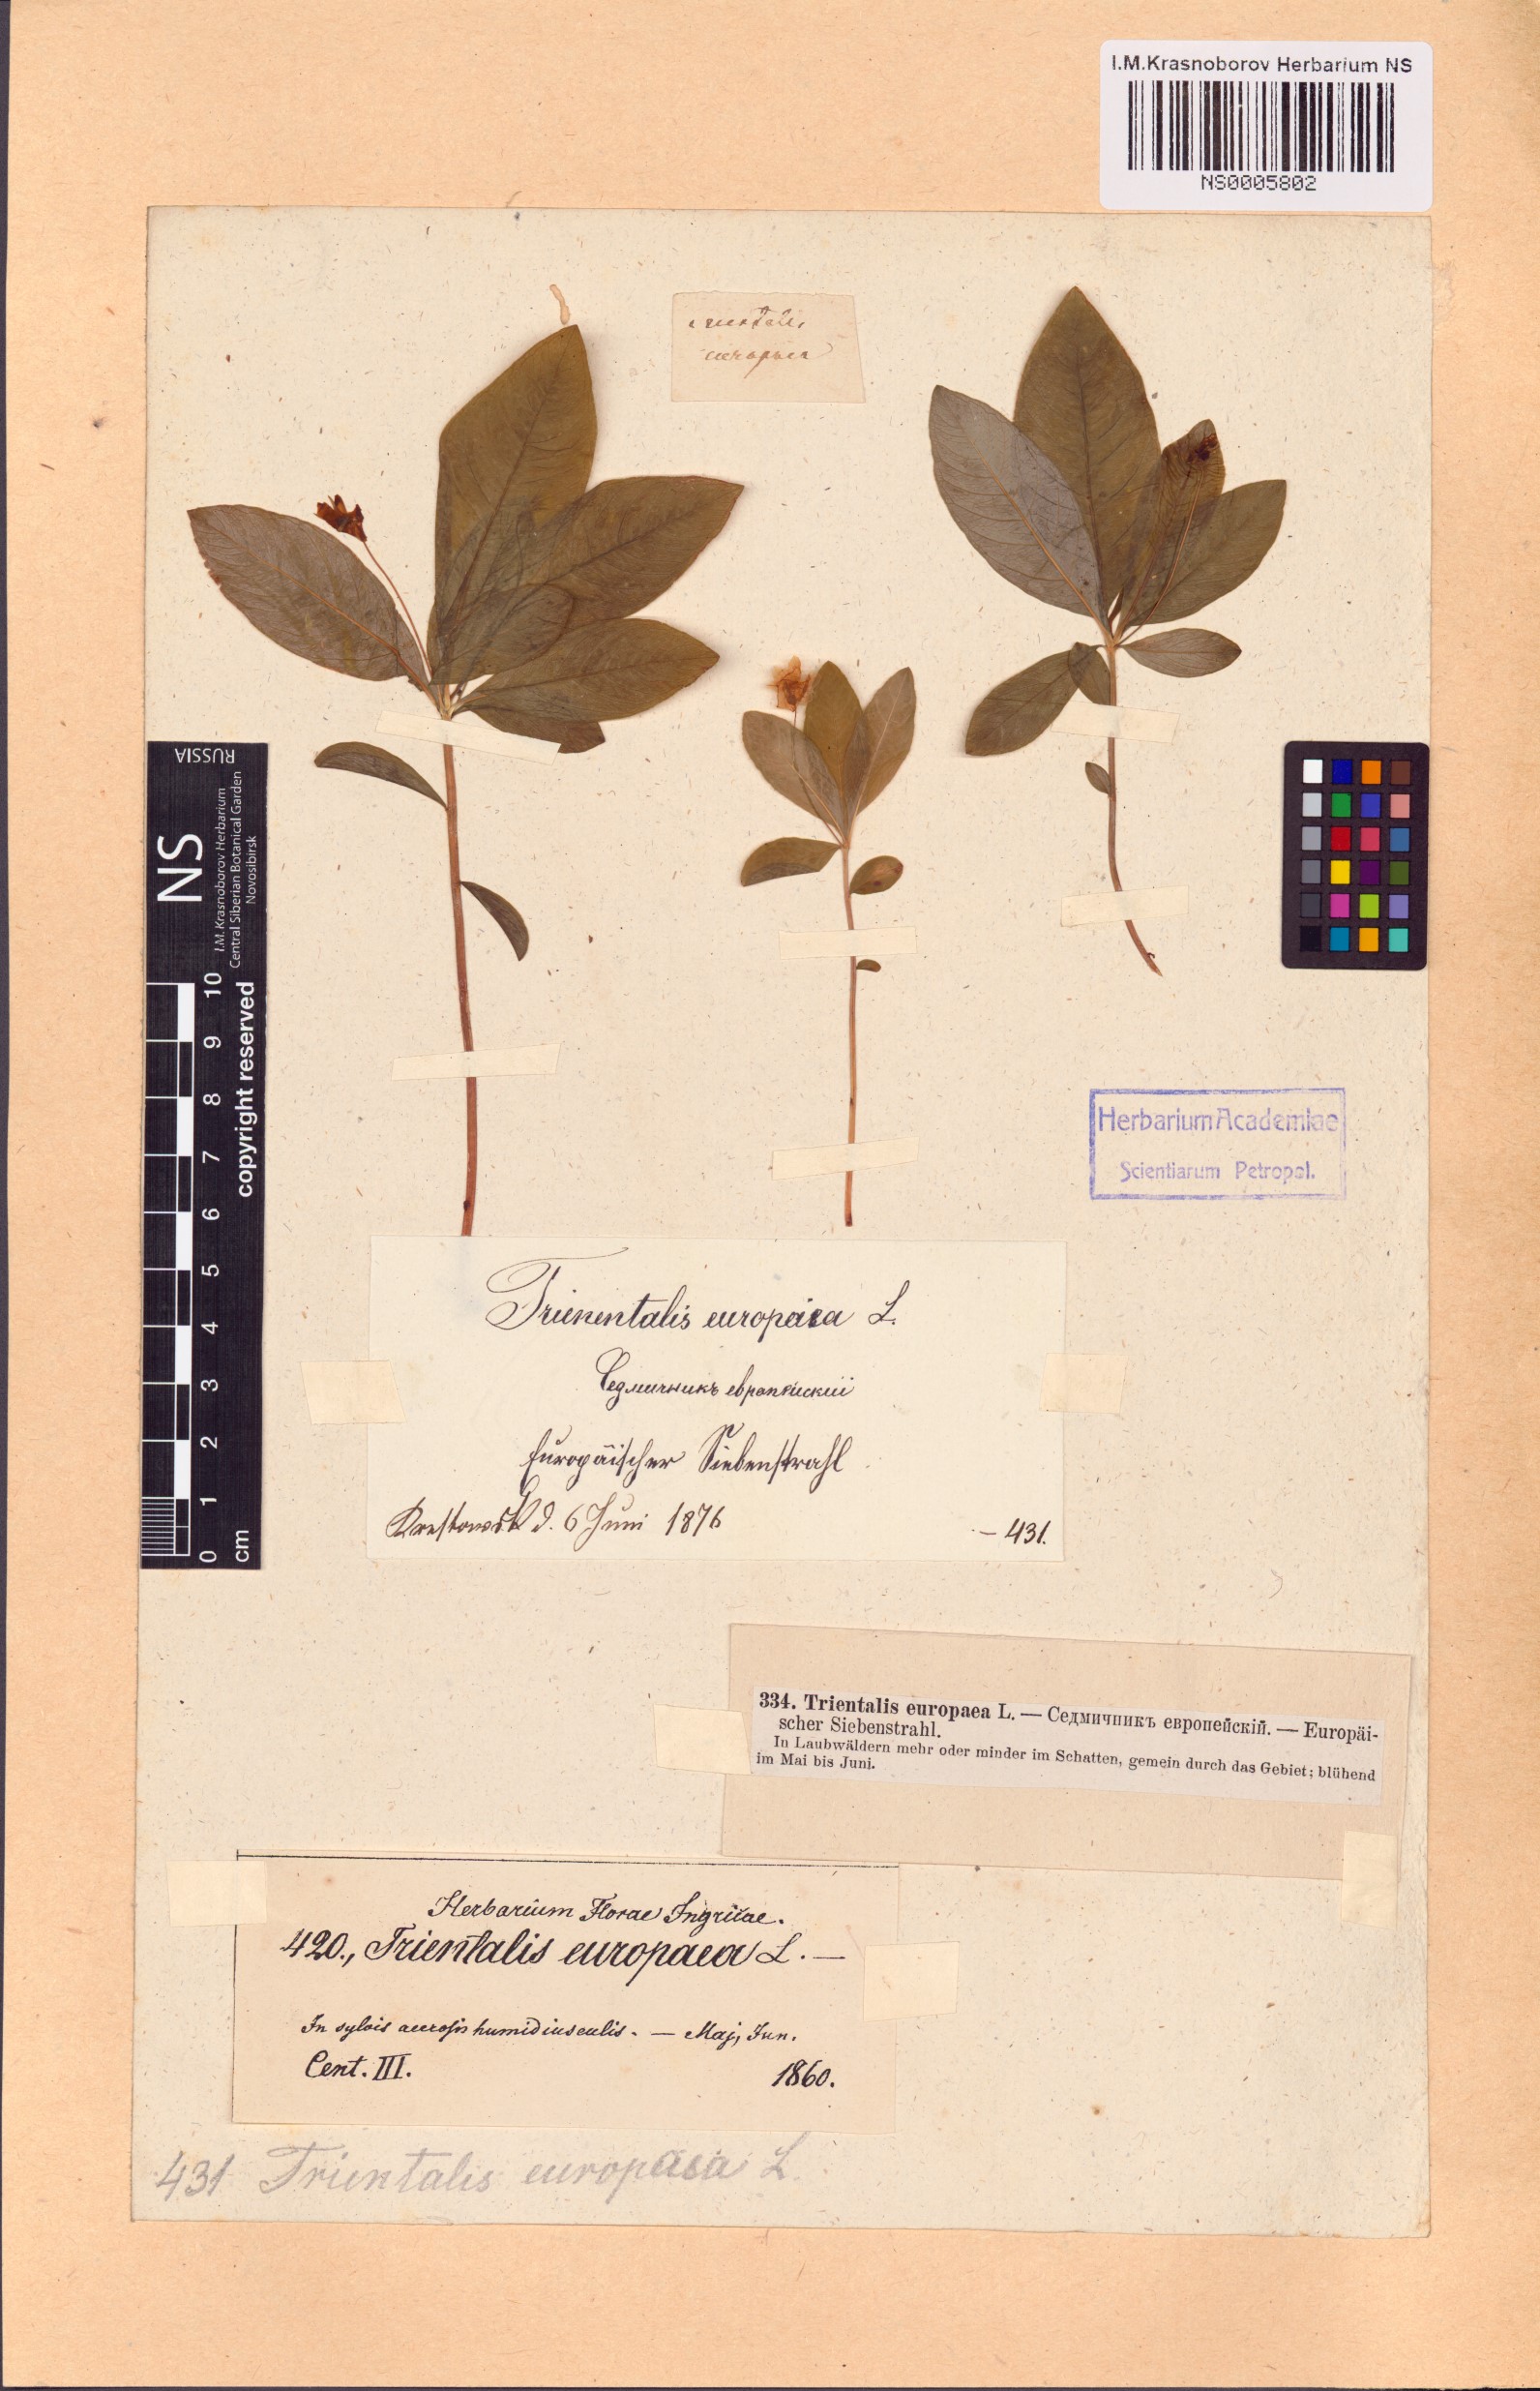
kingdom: Plantae
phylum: Tracheophyta
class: Magnoliopsida
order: Ericales
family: Primulaceae
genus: Lysimachia
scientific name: Lysimachia europaea
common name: Arctic starflower
